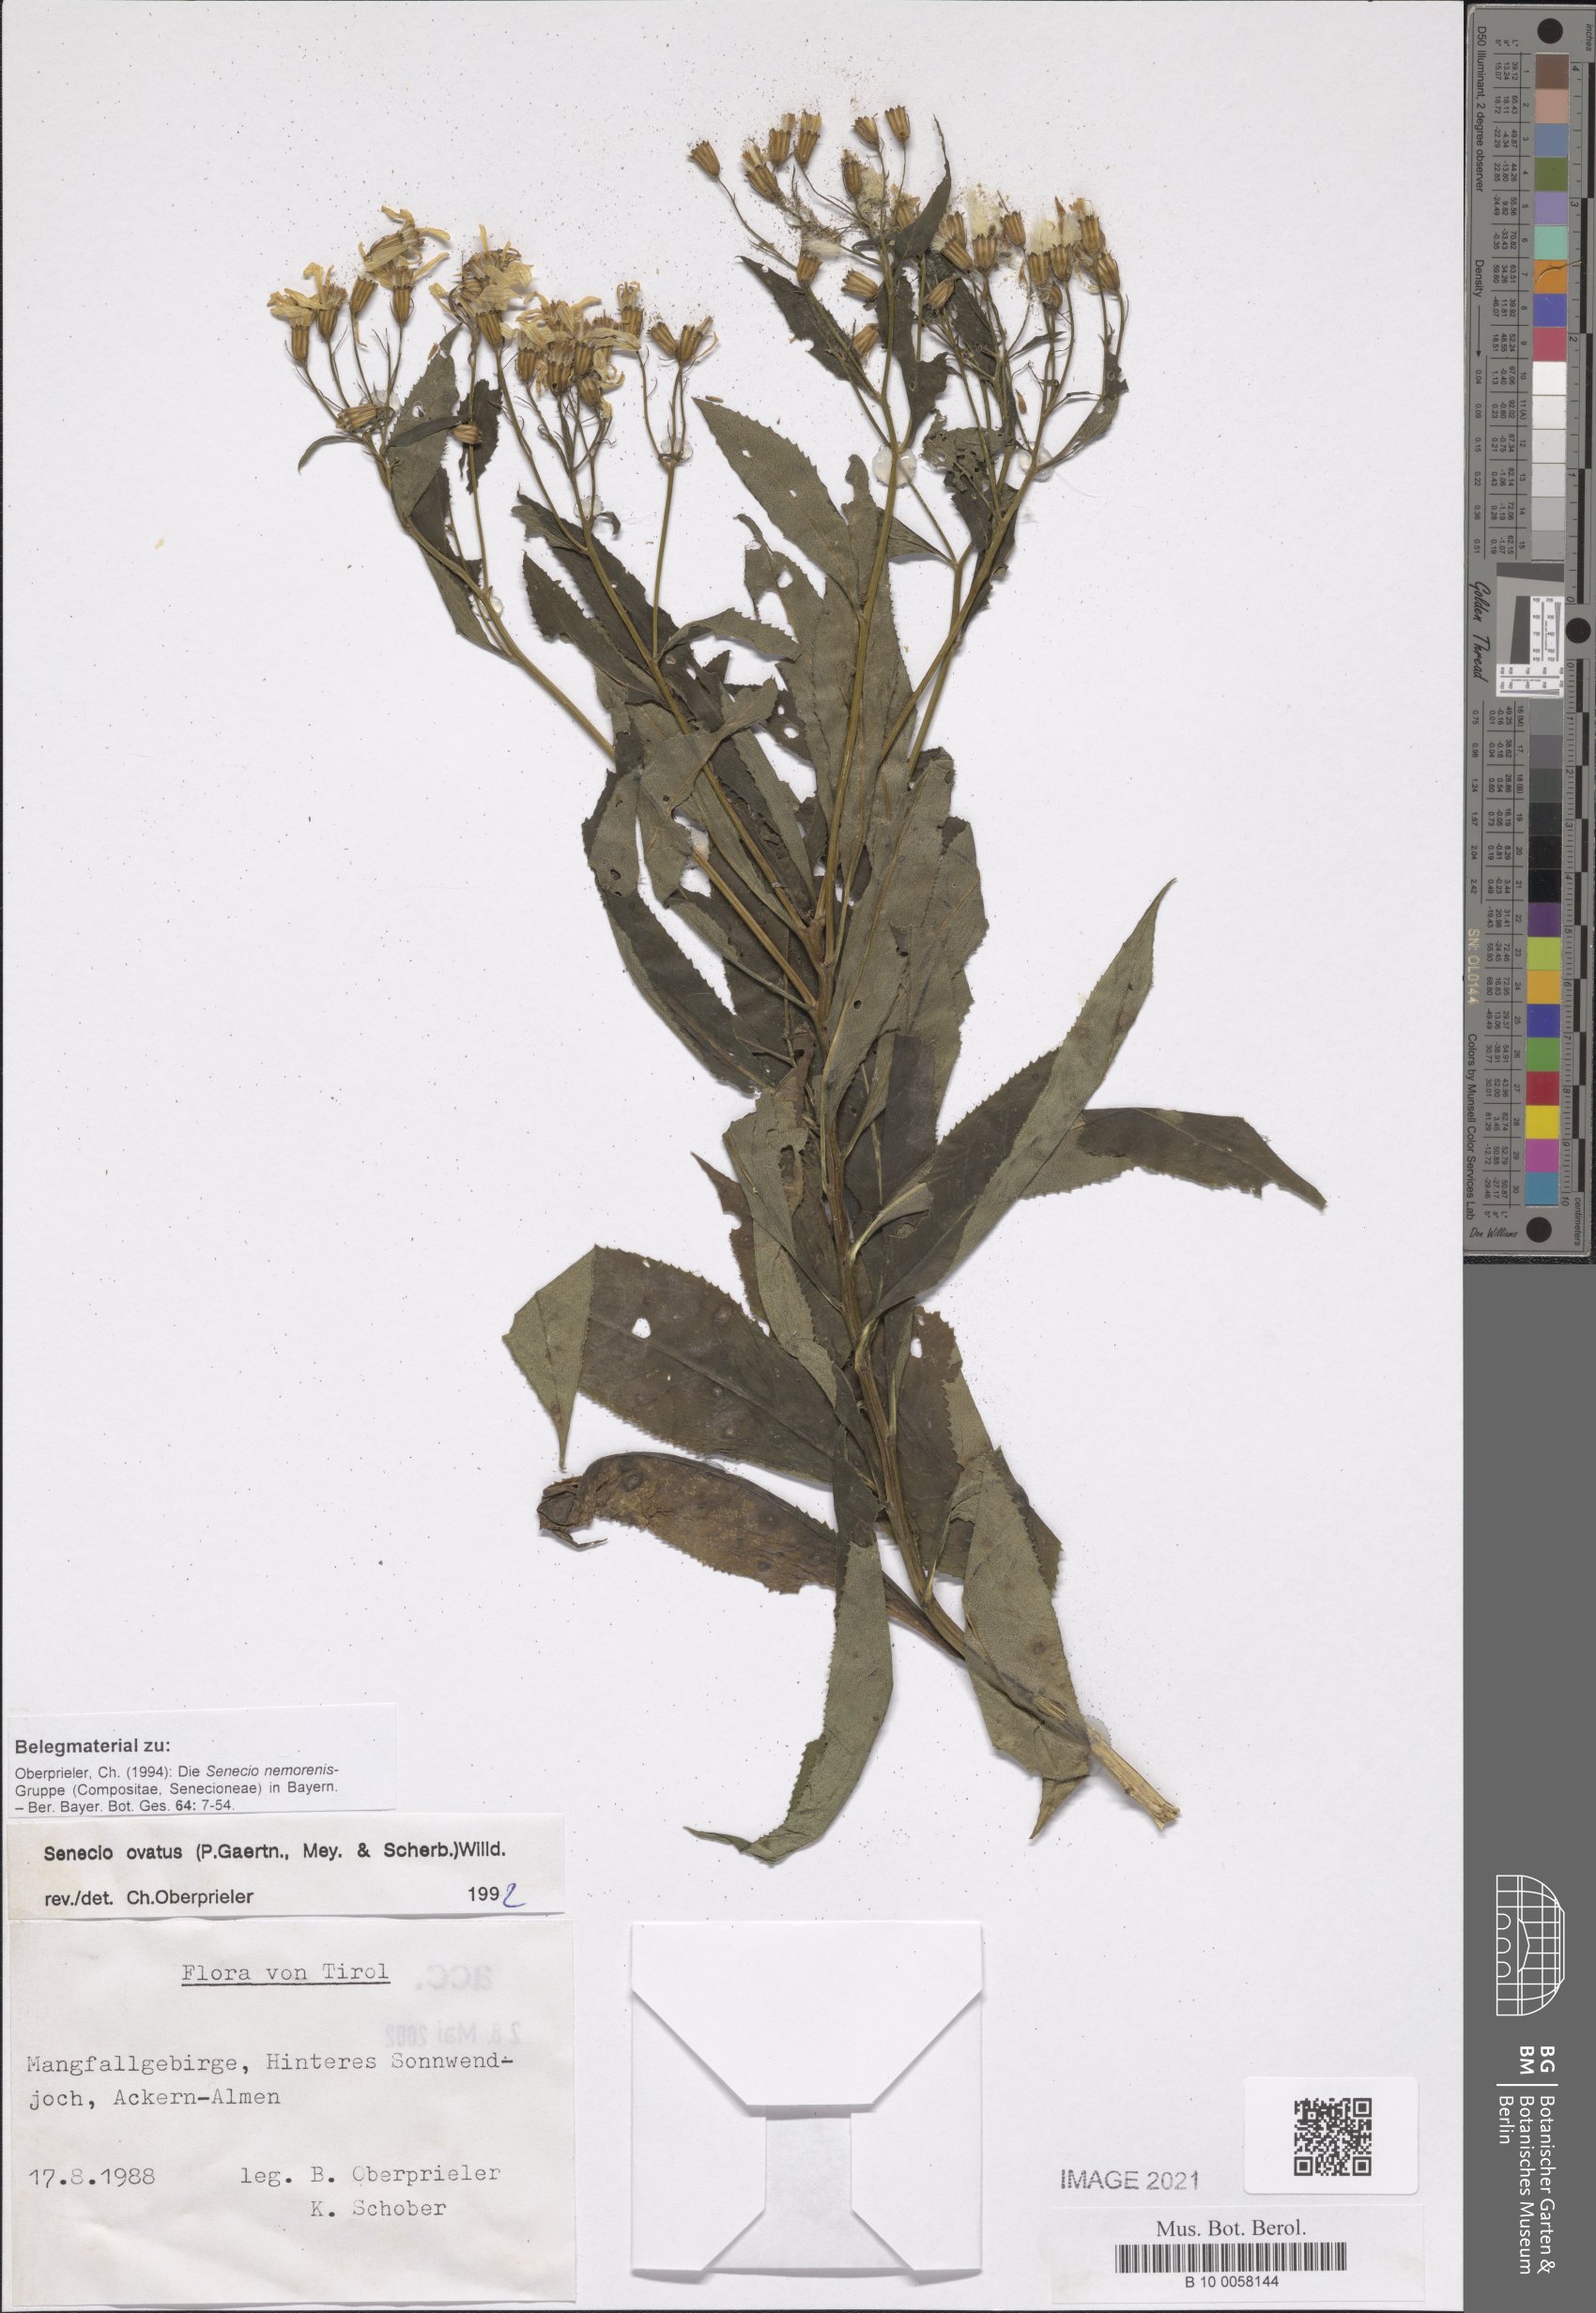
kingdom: Plantae
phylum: Tracheophyta
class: Magnoliopsida
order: Asterales
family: Asteraceae
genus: Senecio
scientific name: Senecio ovatus
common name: Wood ragwort
